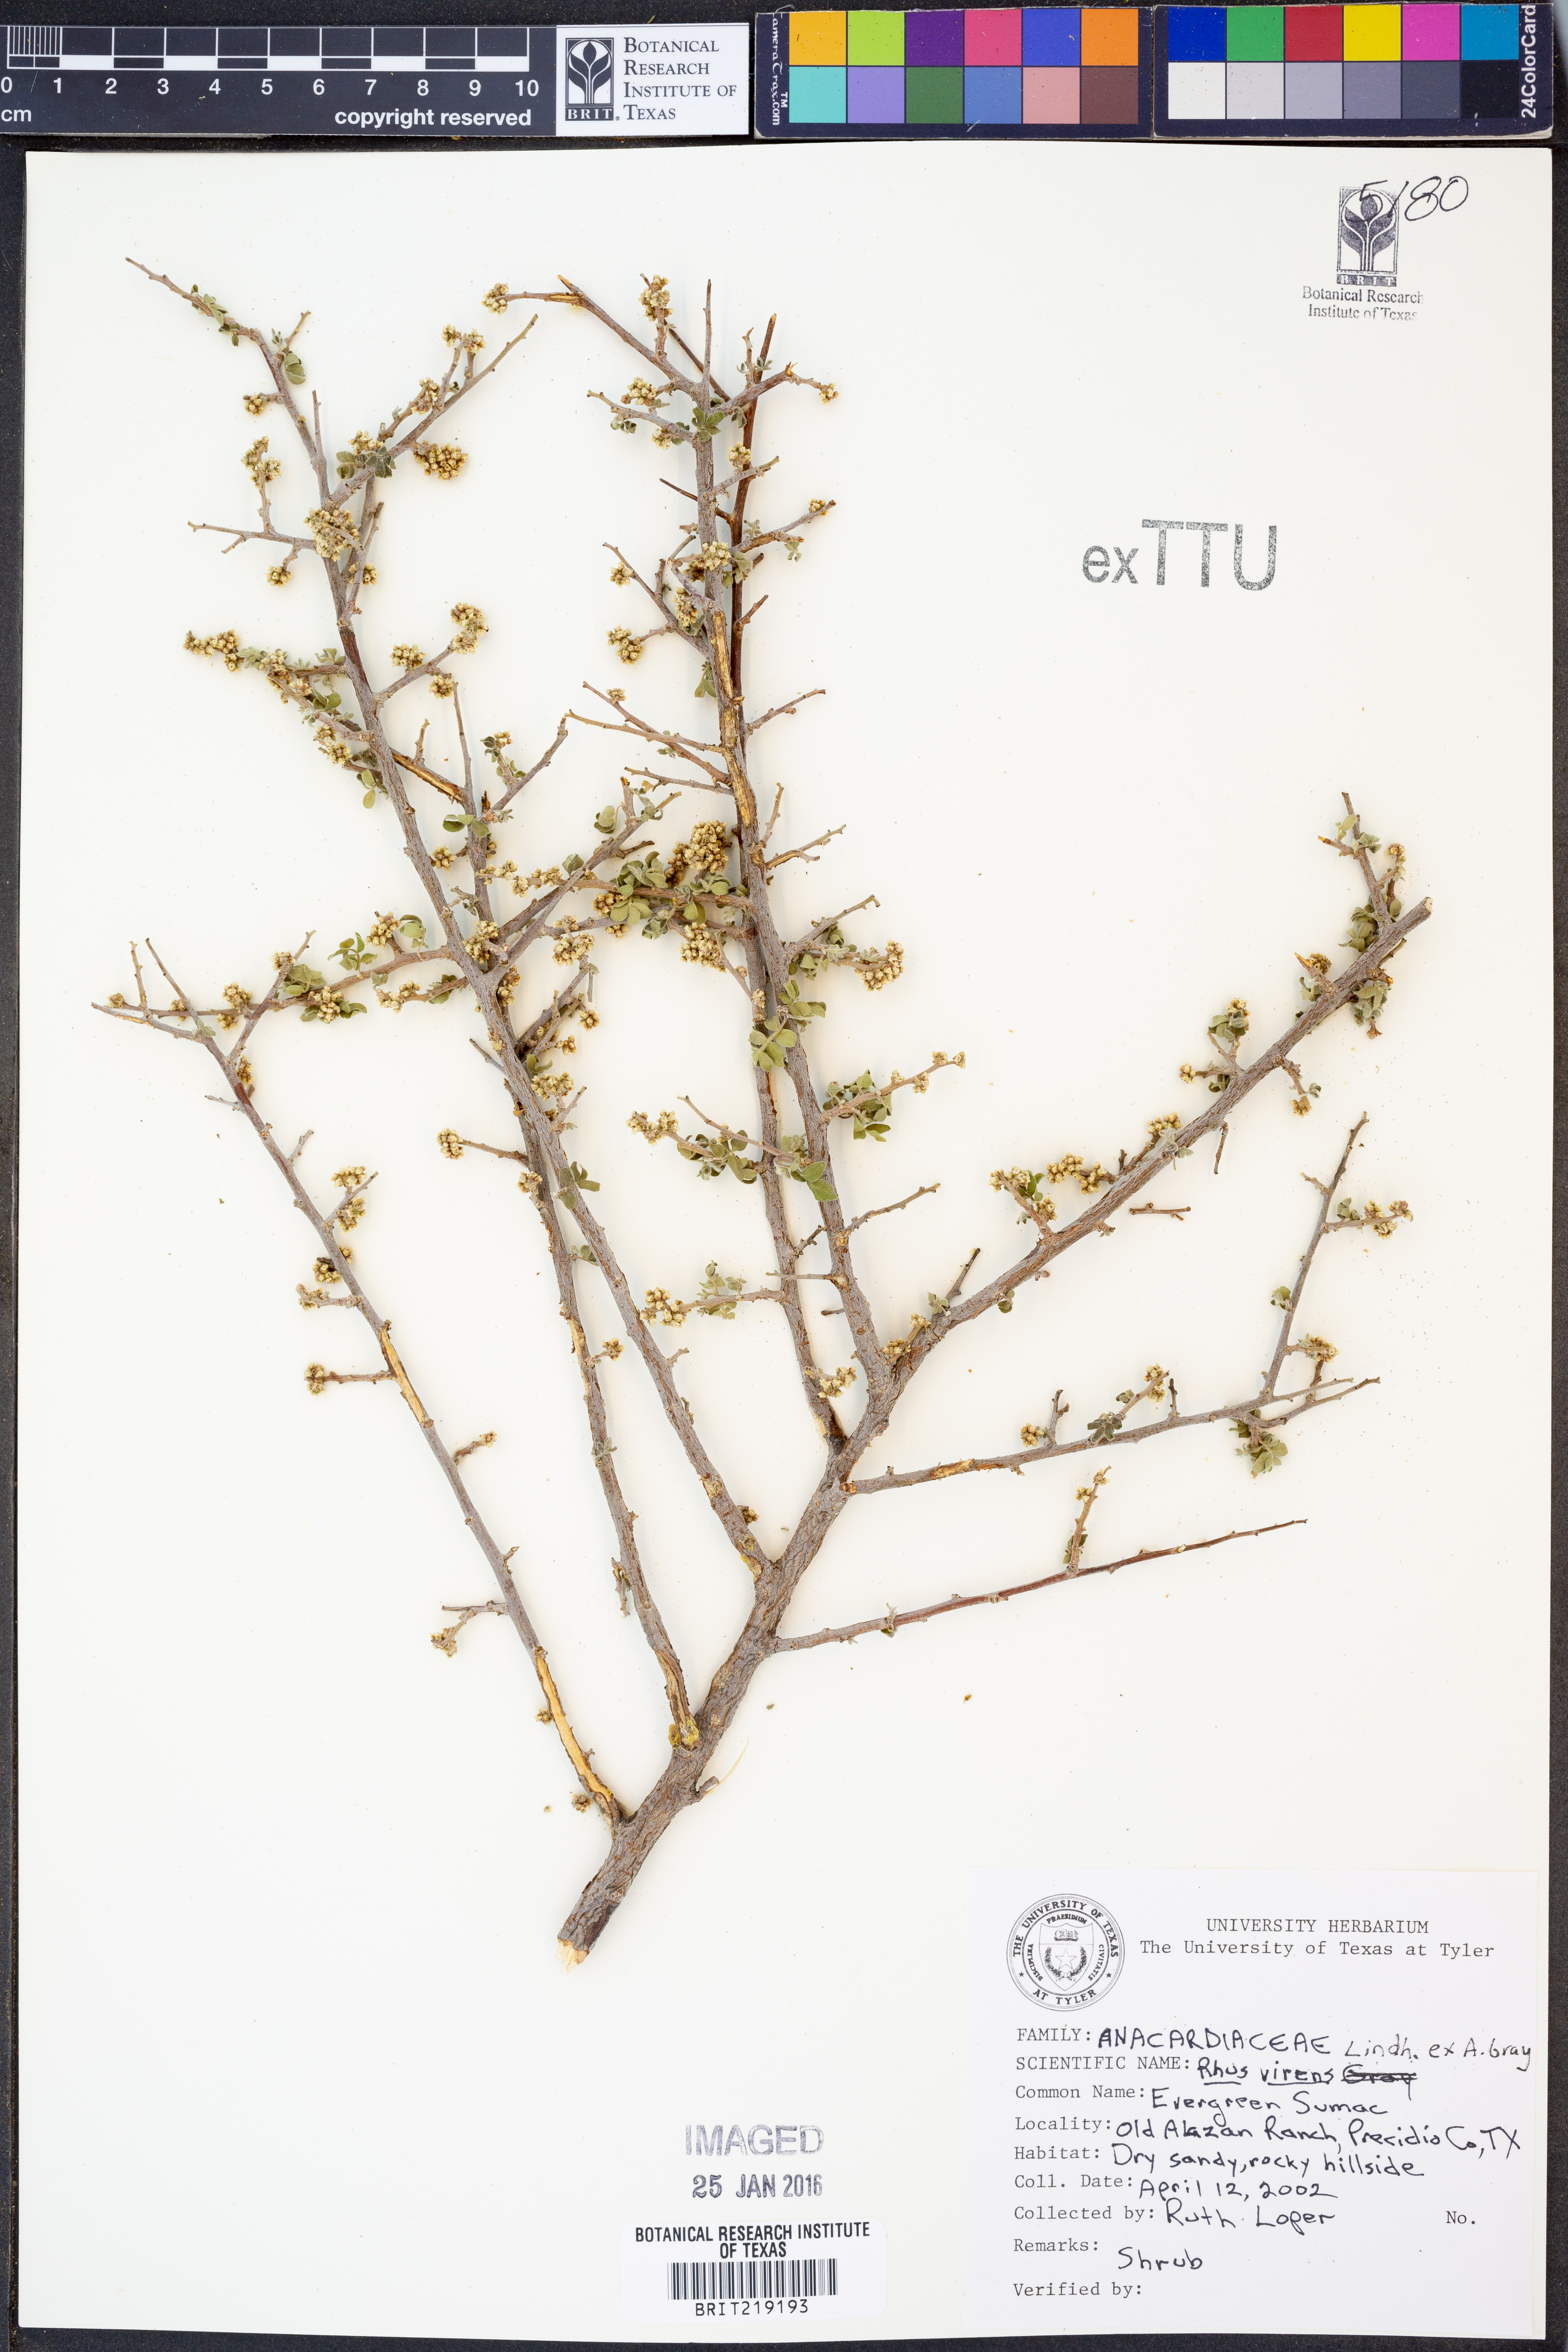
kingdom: Plantae
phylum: Tracheophyta
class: Magnoliopsida
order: Sapindales
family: Anacardiaceae
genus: Rhus
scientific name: Rhus virens
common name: Evergreen sumac
